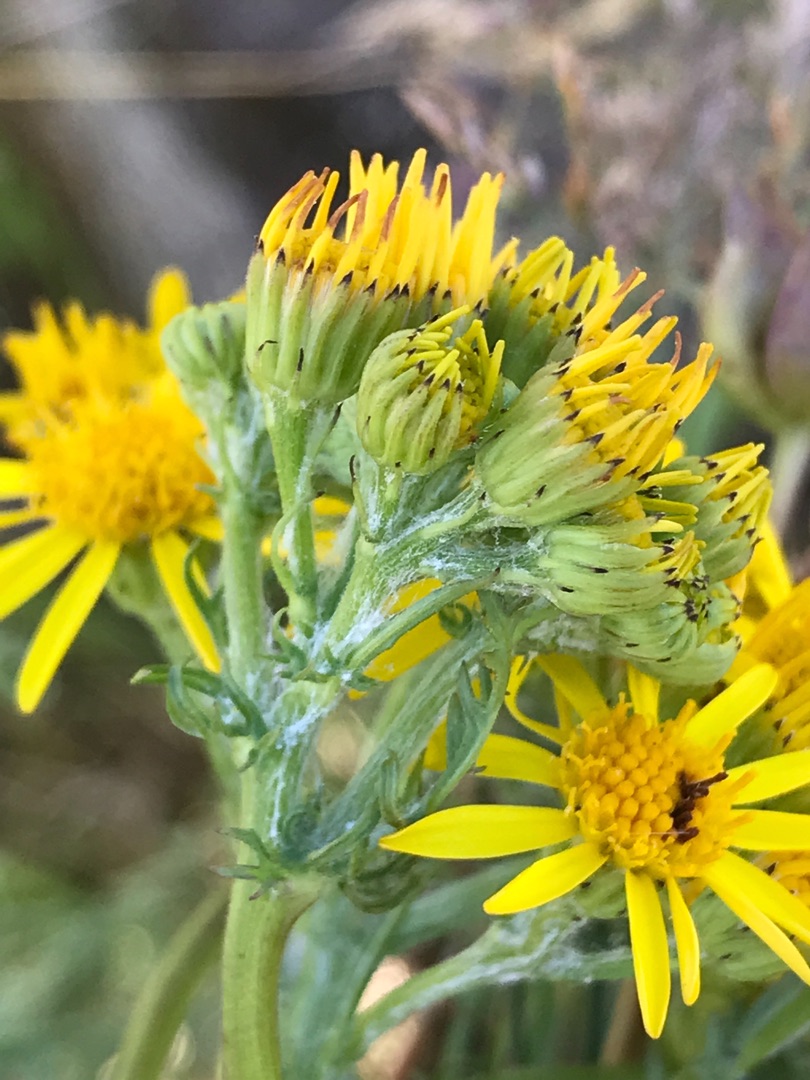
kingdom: Plantae
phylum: Tracheophyta
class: Magnoliopsida
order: Asterales
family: Asteraceae
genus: Jacobaea
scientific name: Jacobaea vulgaris
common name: Eng-brandbæger
